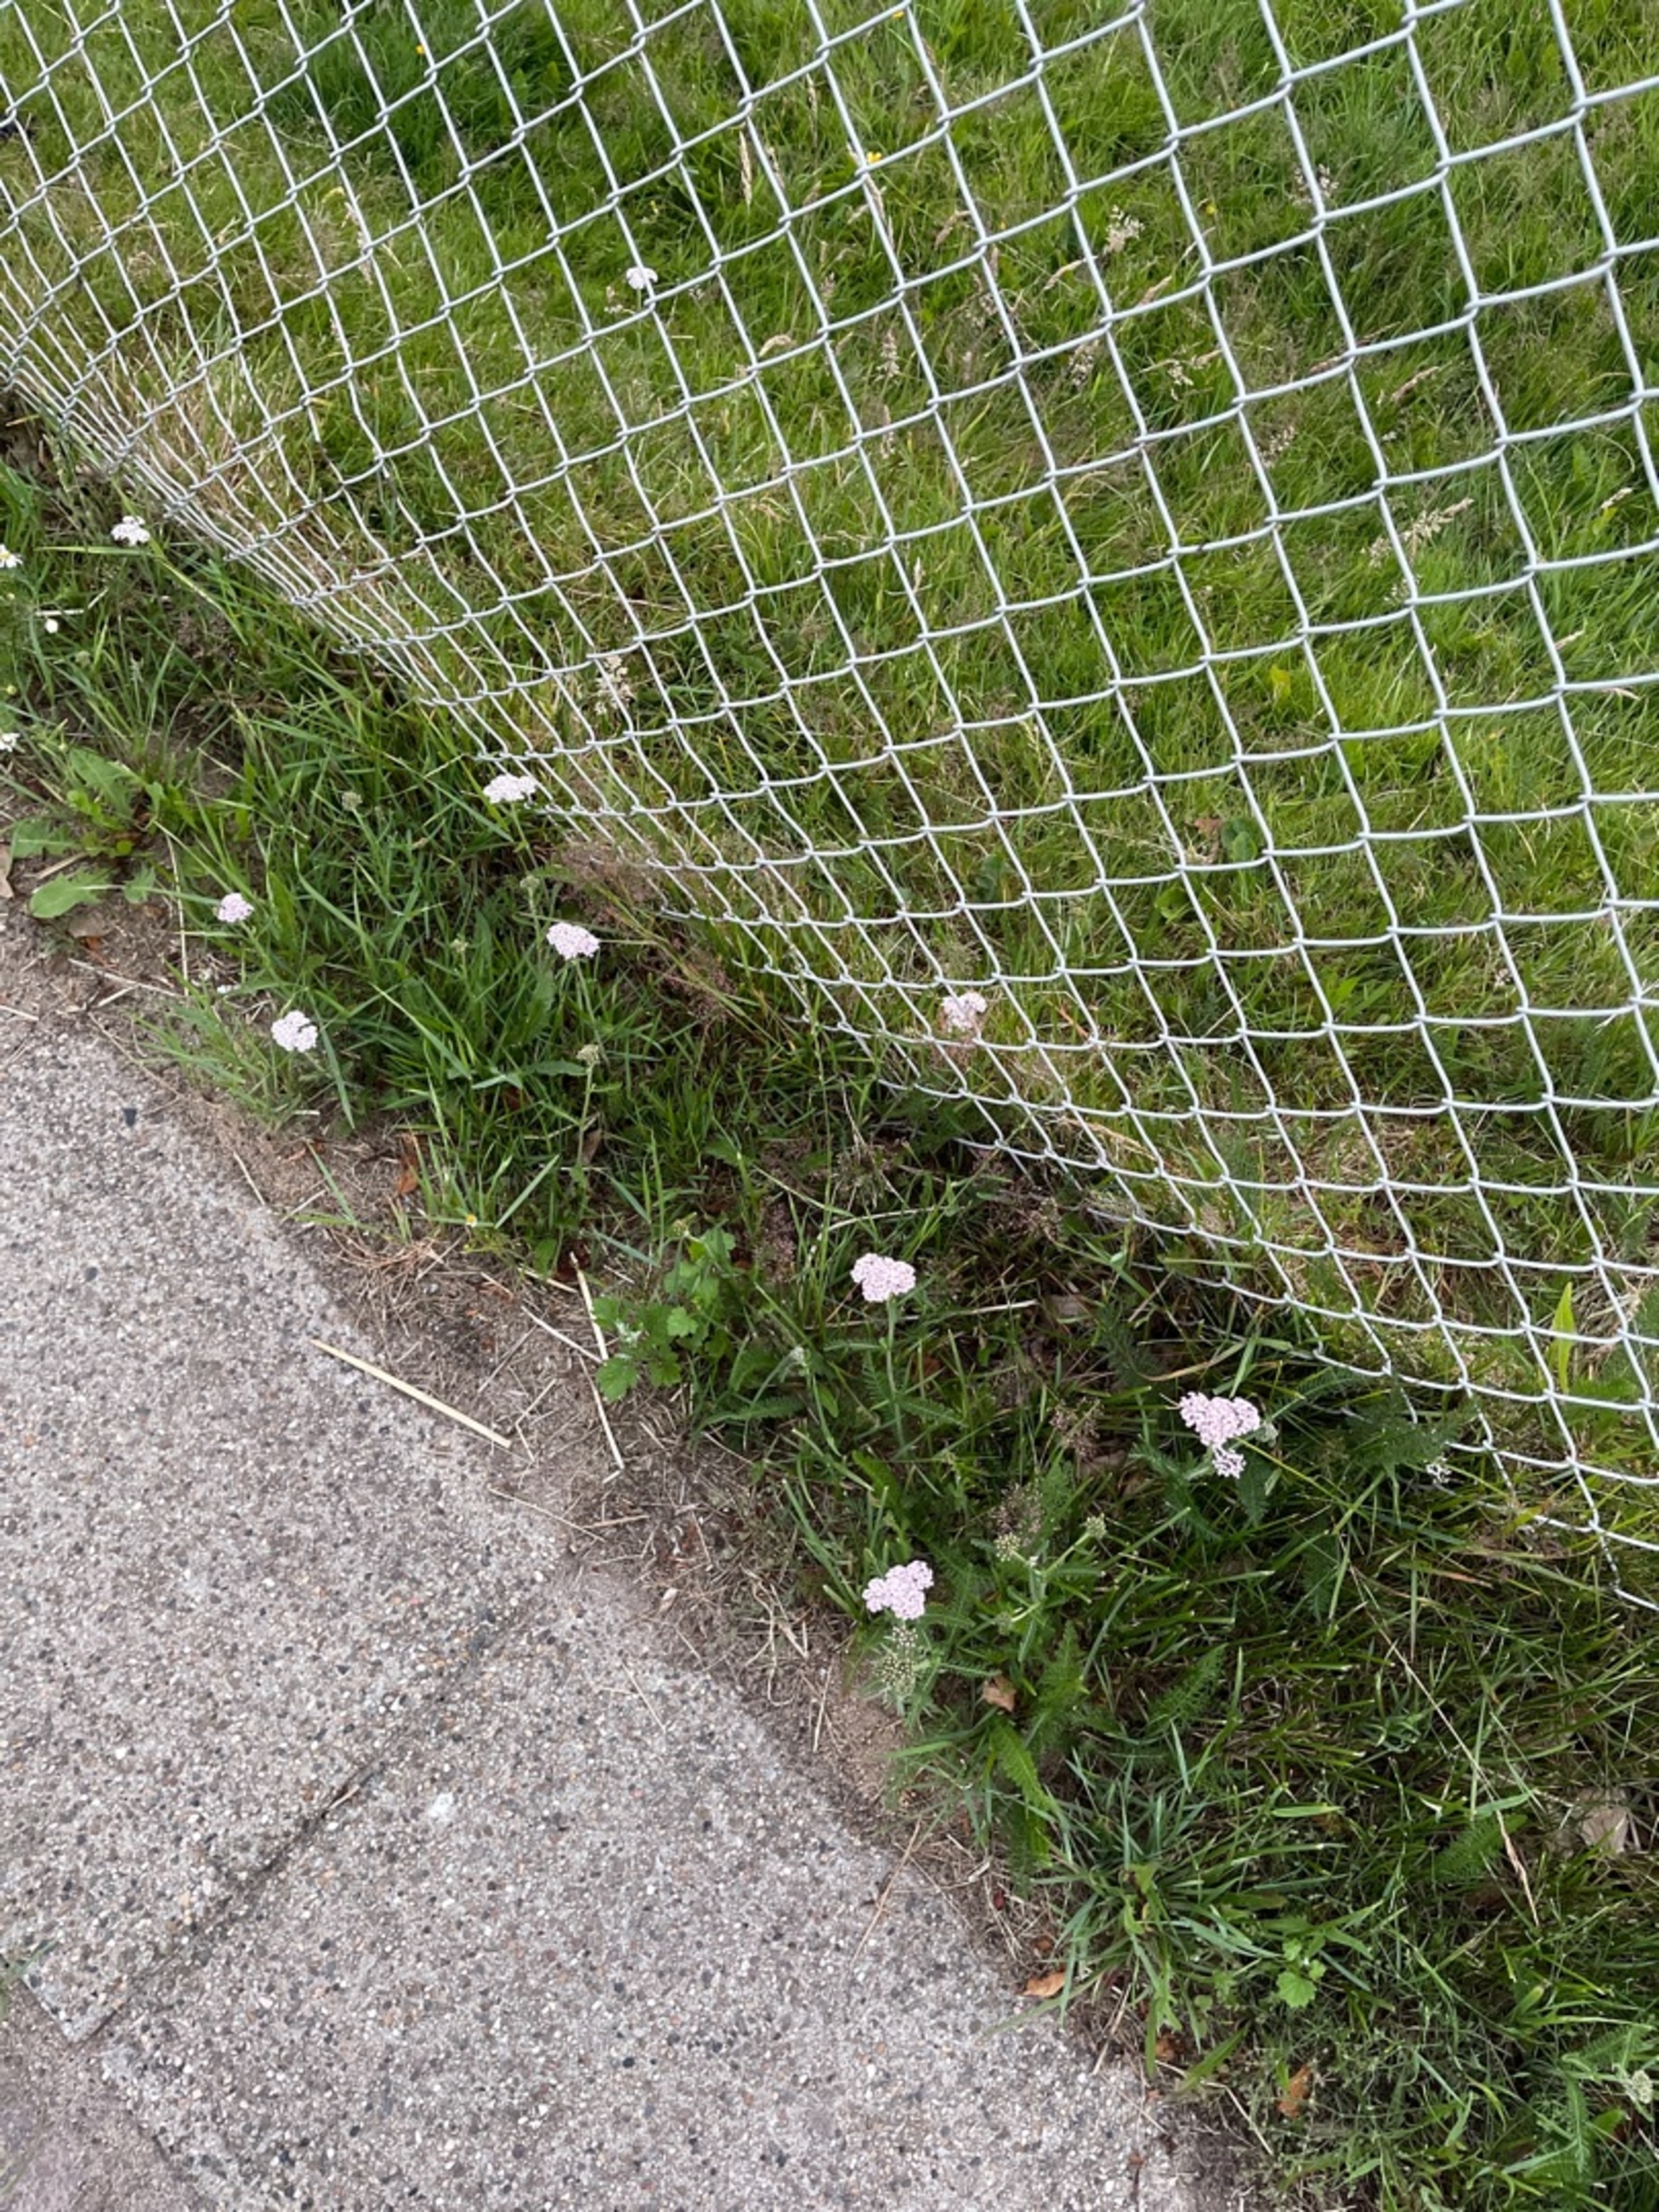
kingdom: Plantae
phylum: Tracheophyta
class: Magnoliopsida
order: Asterales
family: Asteraceae
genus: Achillea
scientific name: Achillea millefolium
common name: Almindelig røllike
